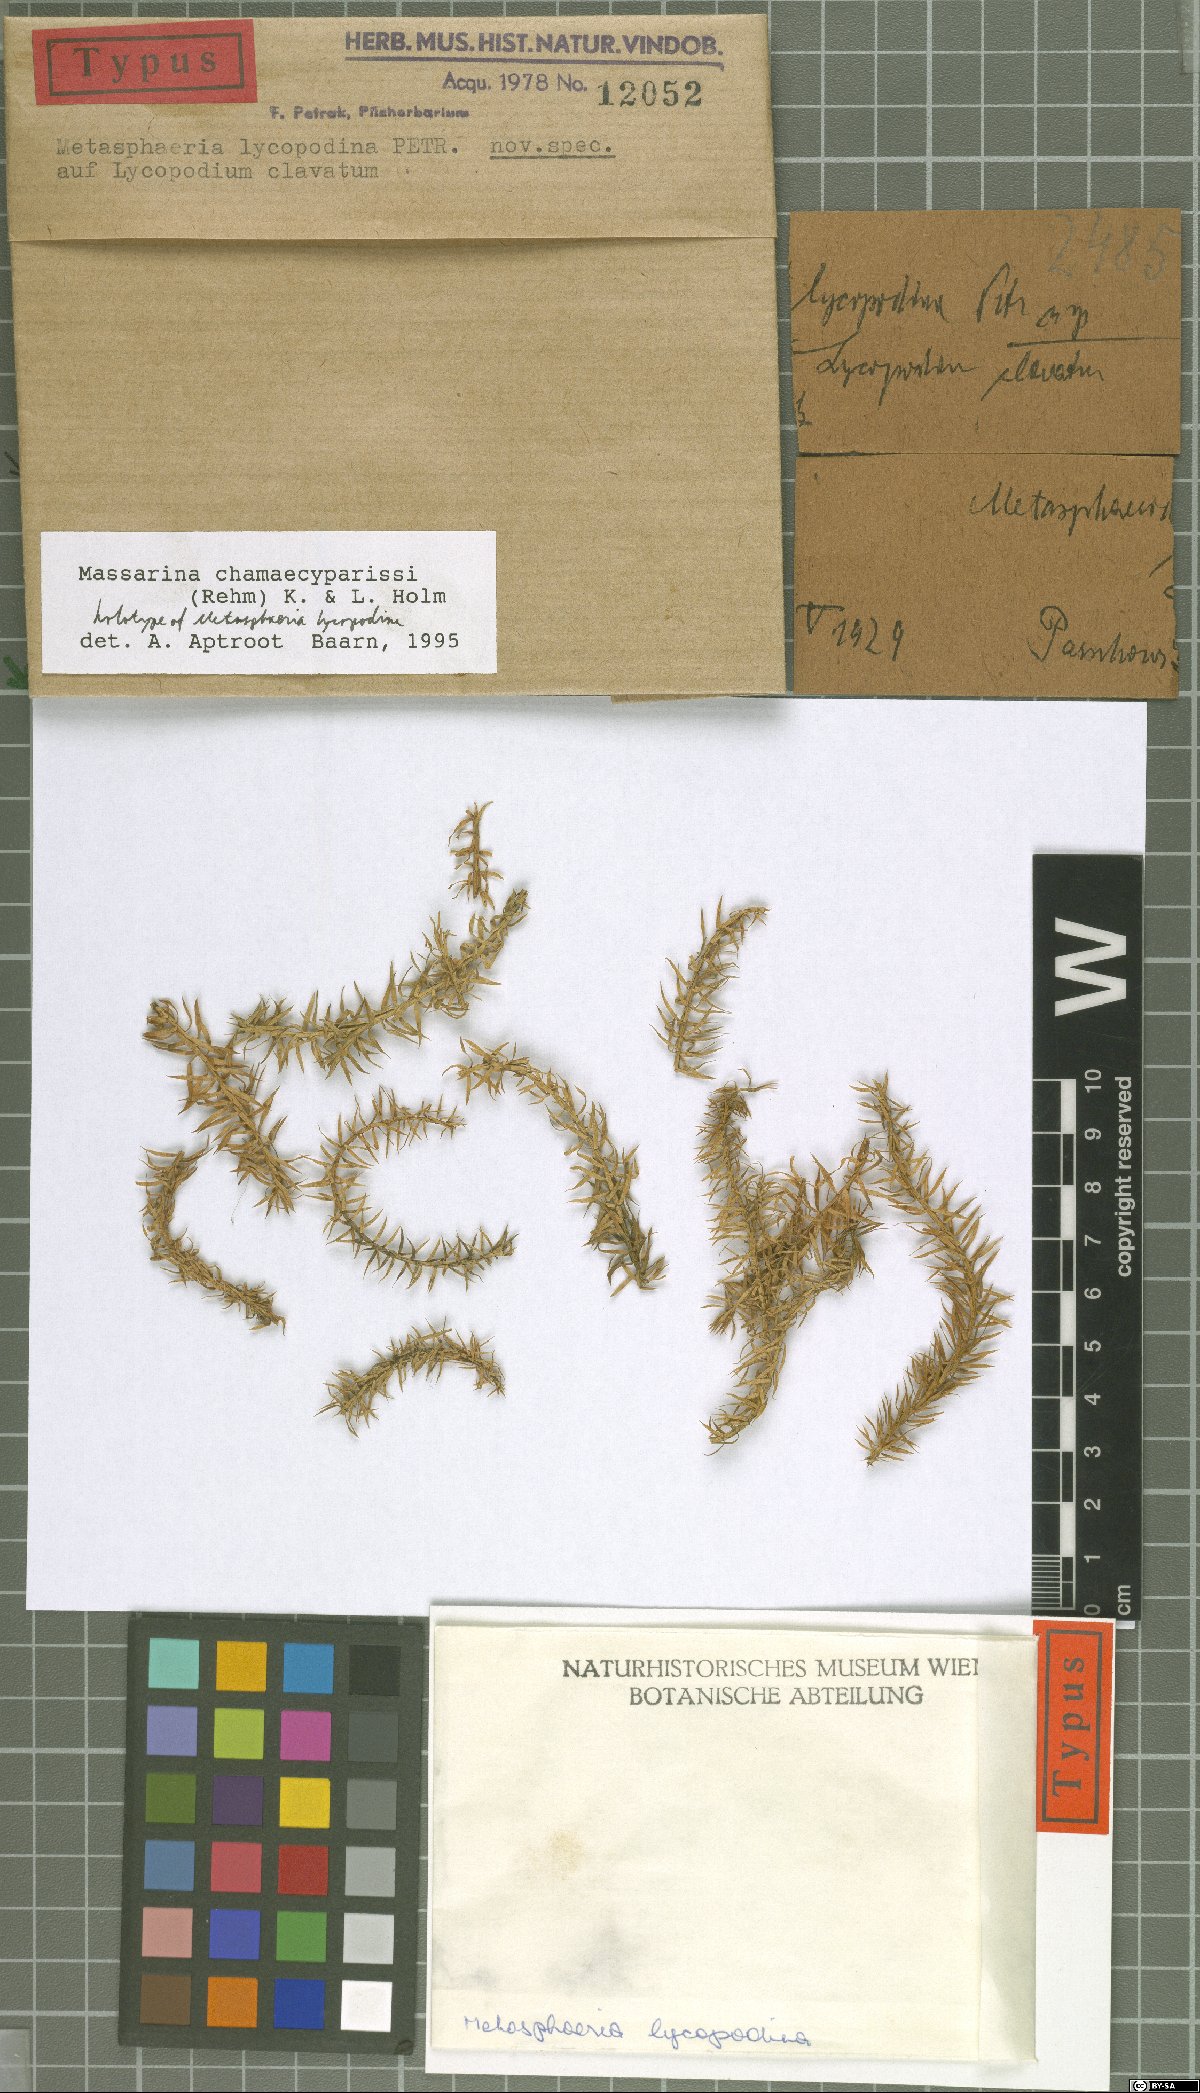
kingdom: Fungi
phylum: Ascomycota
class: Dothideomycetes
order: Dothideales
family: Saccotheciaceae
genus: Metasphaeria
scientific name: Metasphaeria lycopodina
